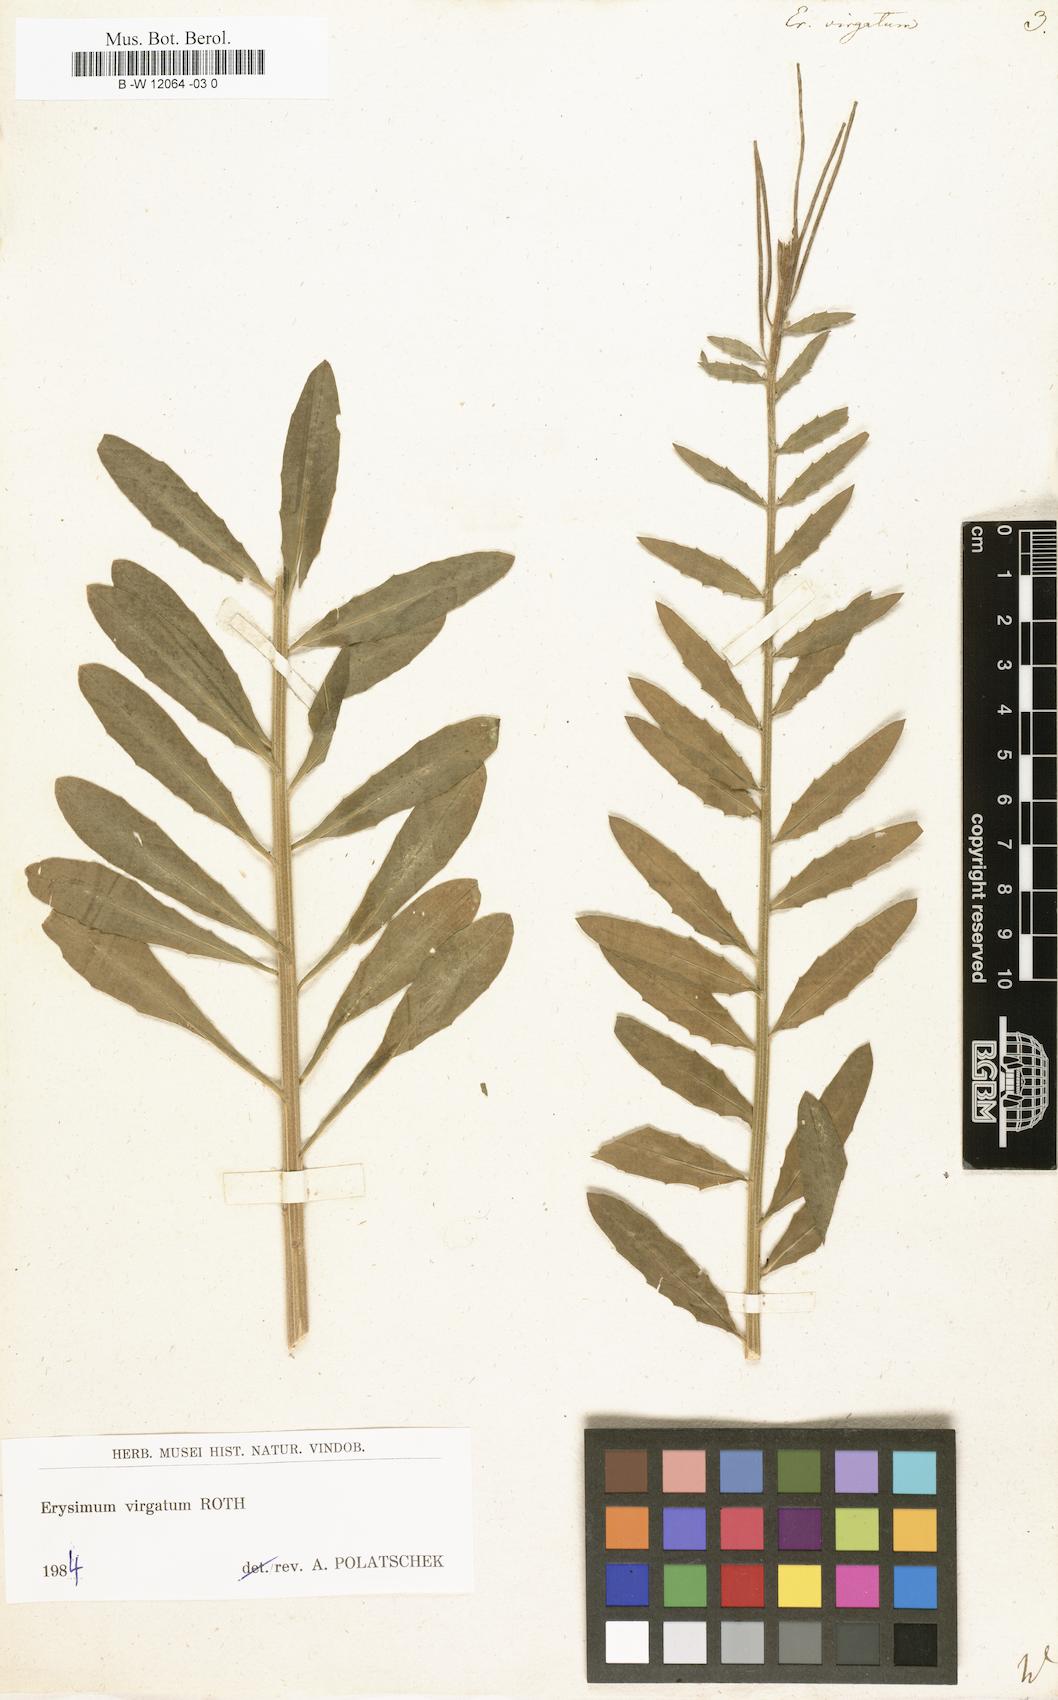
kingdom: Plantae
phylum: Tracheophyta
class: Magnoliopsida
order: Brassicales
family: Brassicaceae
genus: Erysimum
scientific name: Erysimum virgatum
